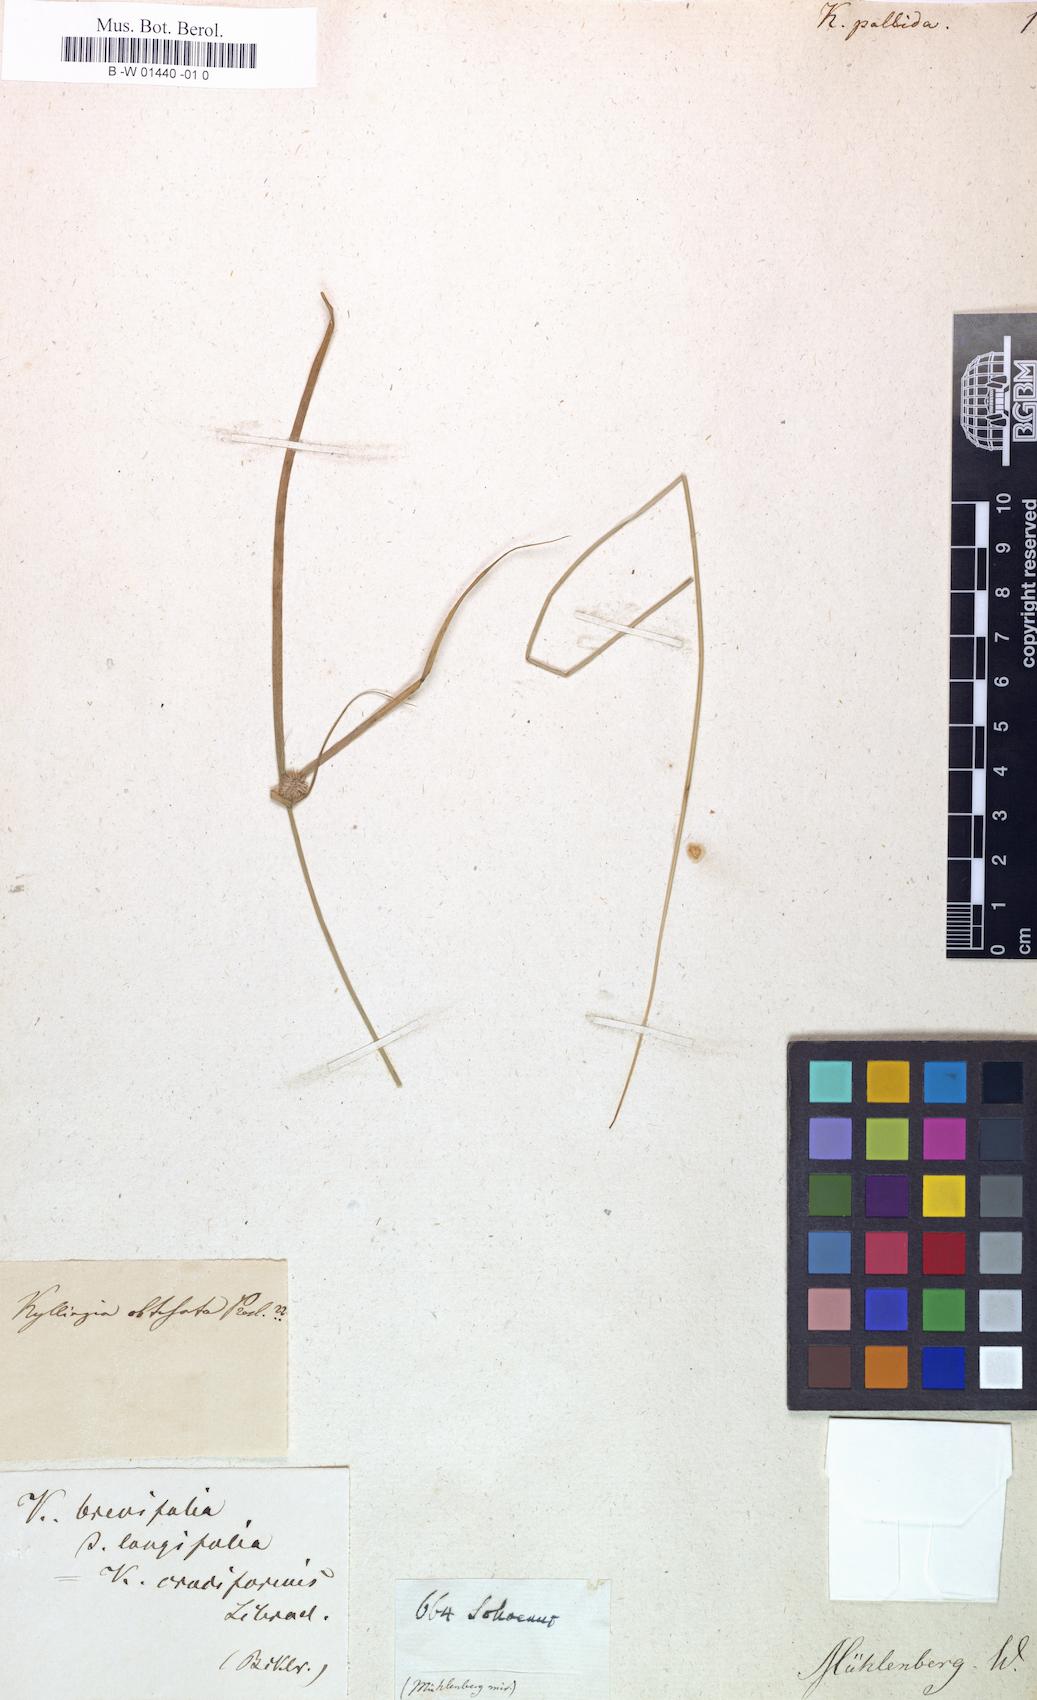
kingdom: Plantae
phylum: Tracheophyta
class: Liliopsida
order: Poales
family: Cyperaceae
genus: Kyllingia
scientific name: Kyllingia
